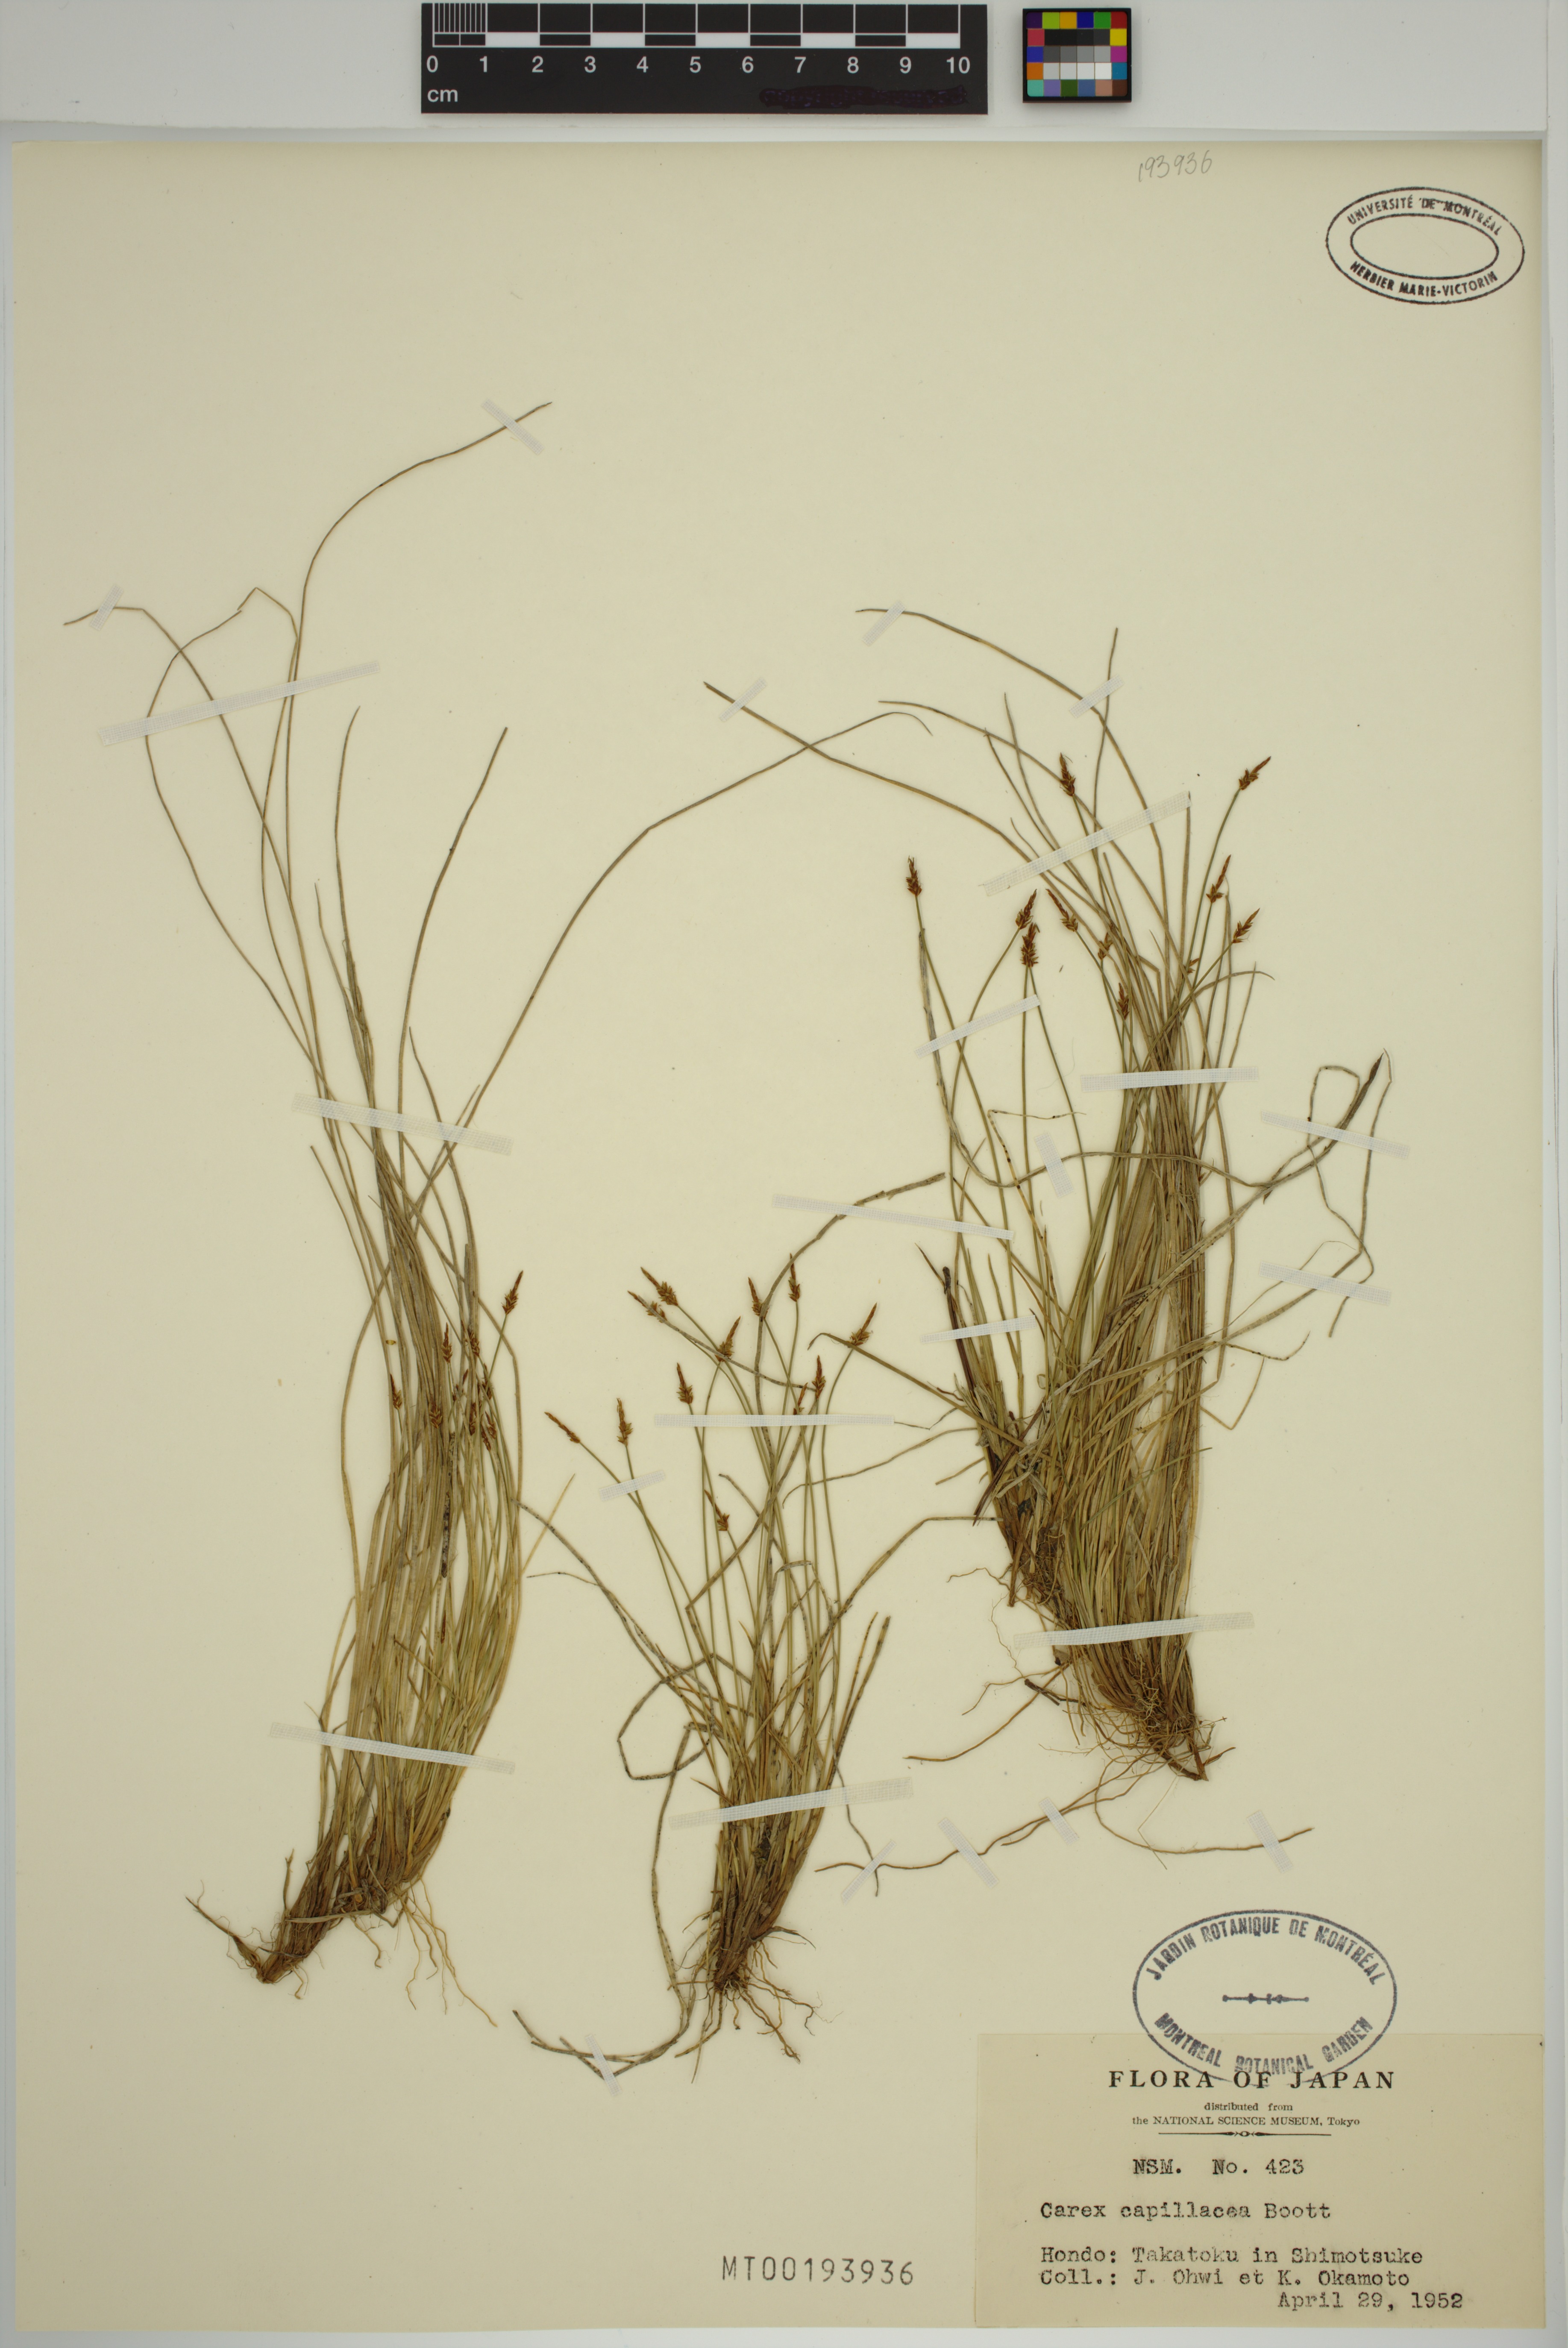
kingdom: Plantae
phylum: Tracheophyta
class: Liliopsida
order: Poales
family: Cyperaceae
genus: Carex
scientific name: Carex capillacea
